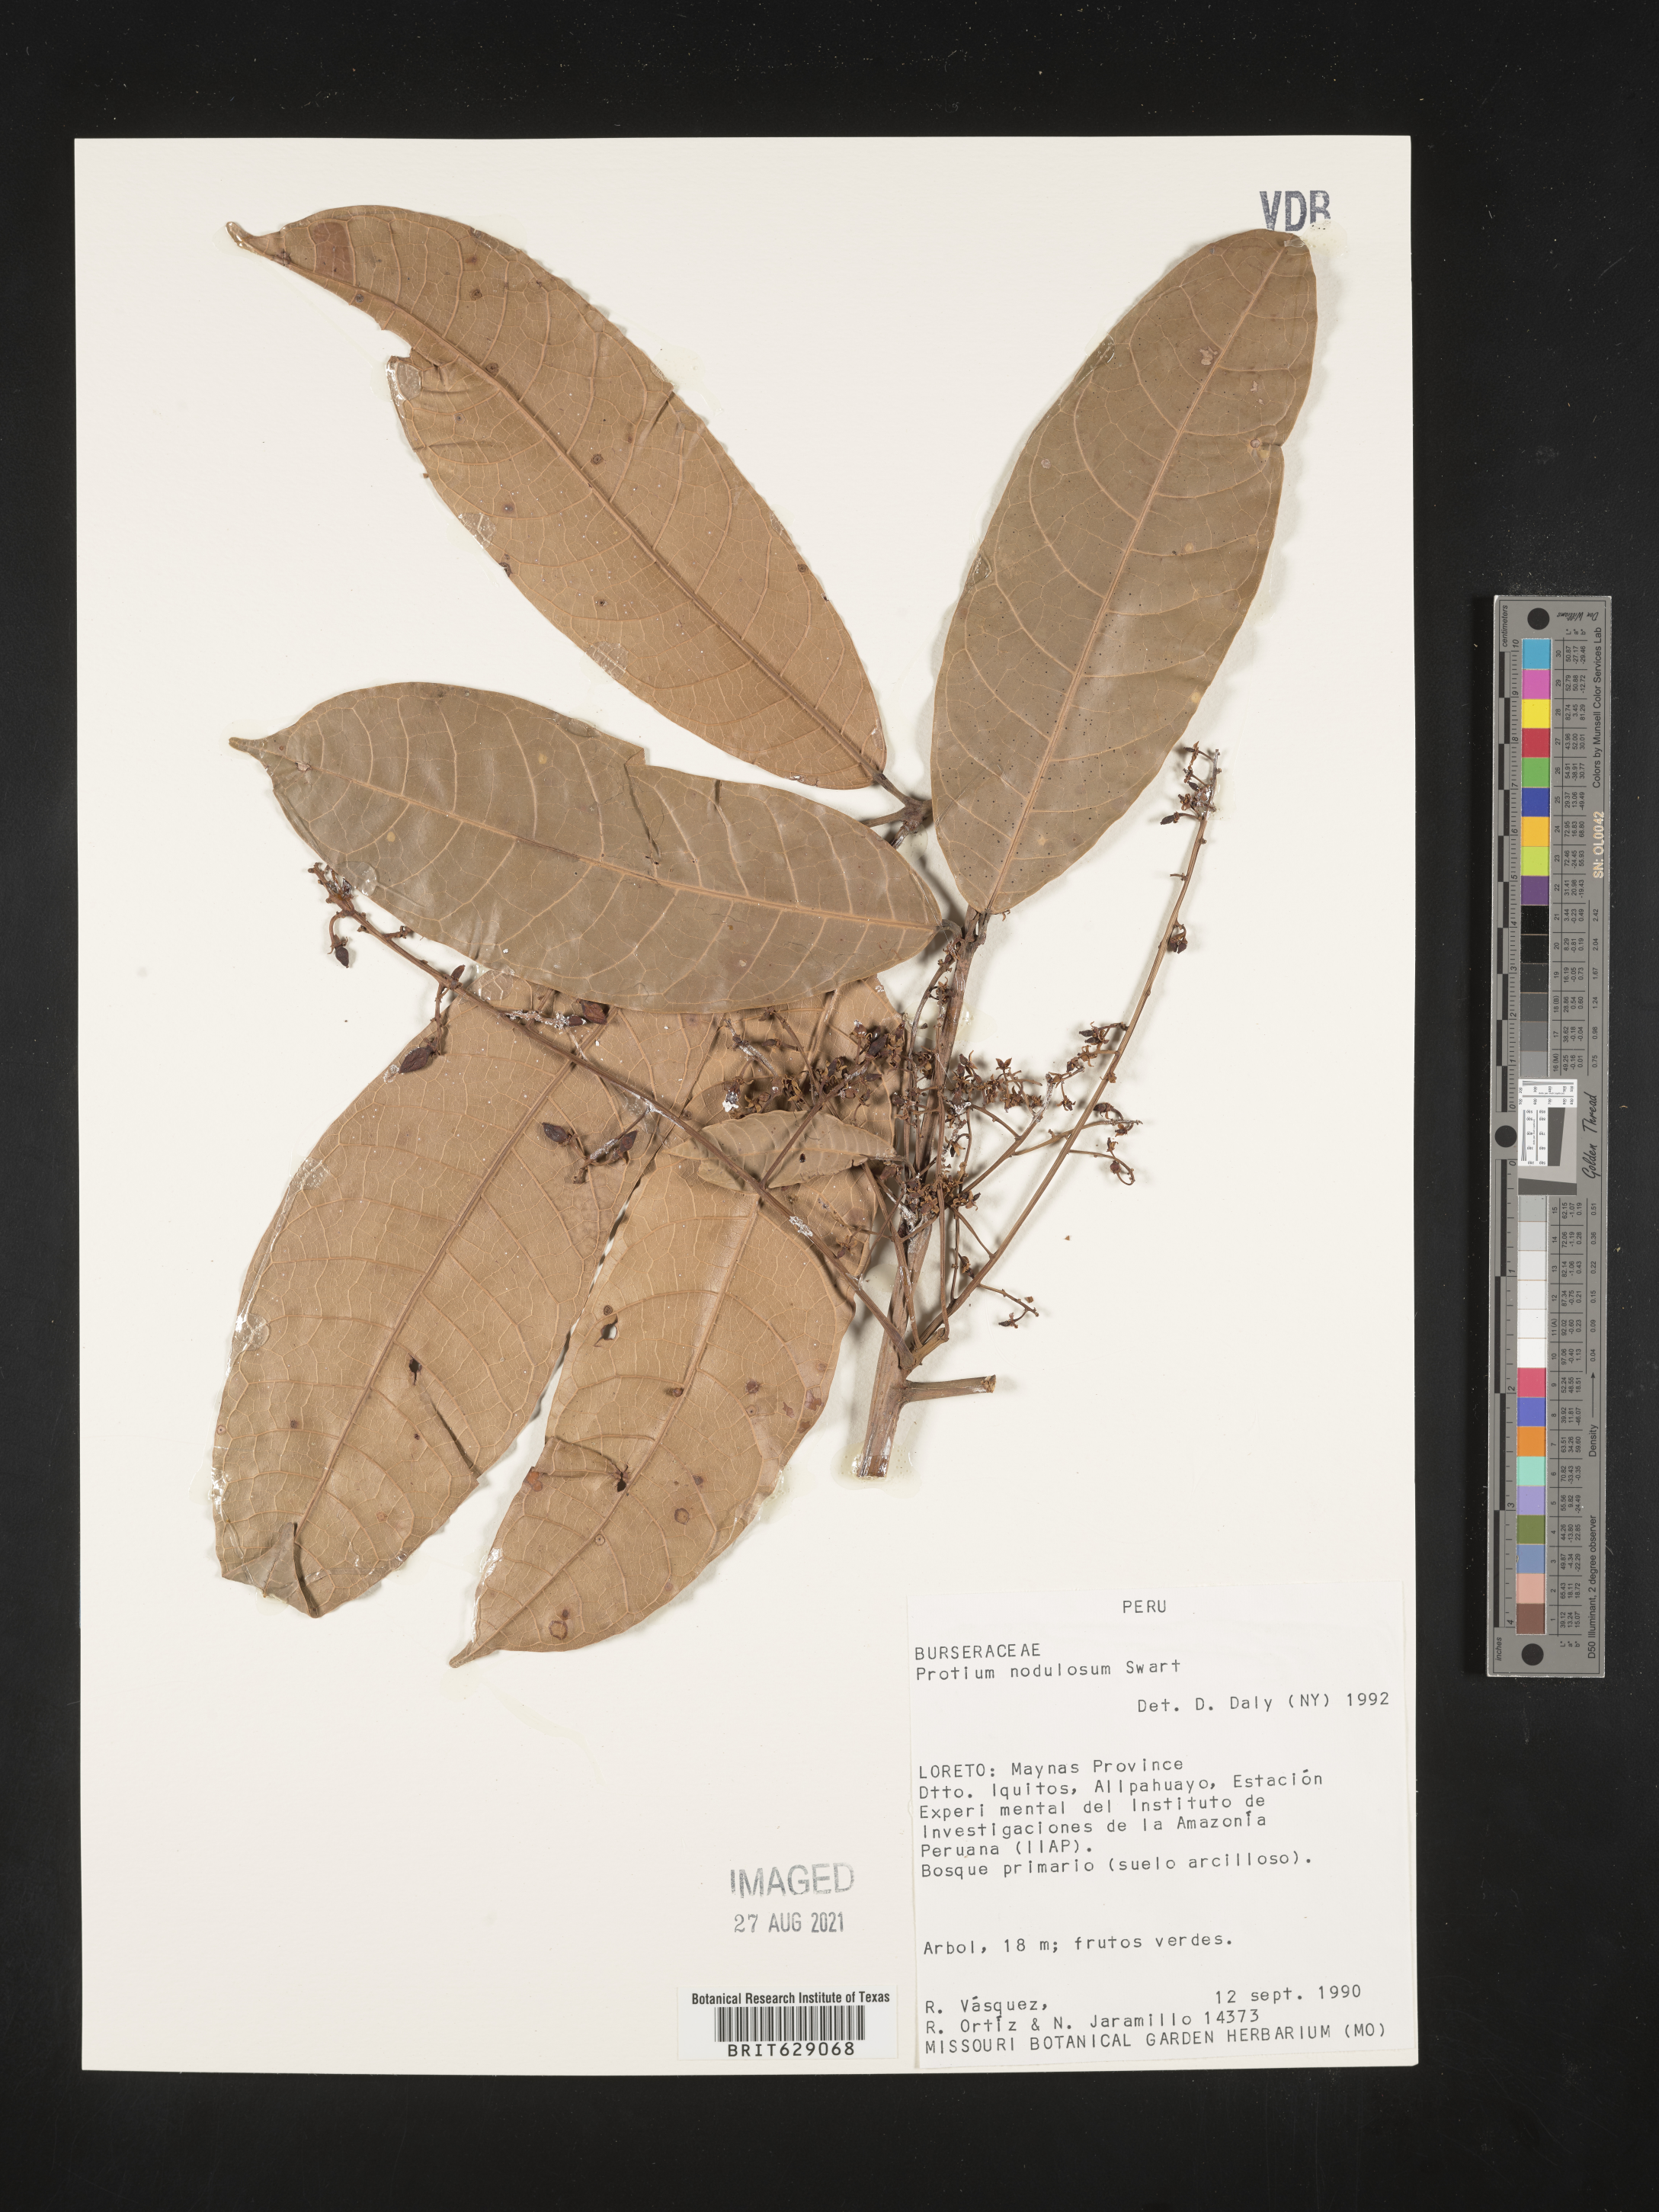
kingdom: Plantae
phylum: Tracheophyta
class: Magnoliopsida
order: Sapindales
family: Burseraceae
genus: Protium
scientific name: Protium nodulosum
